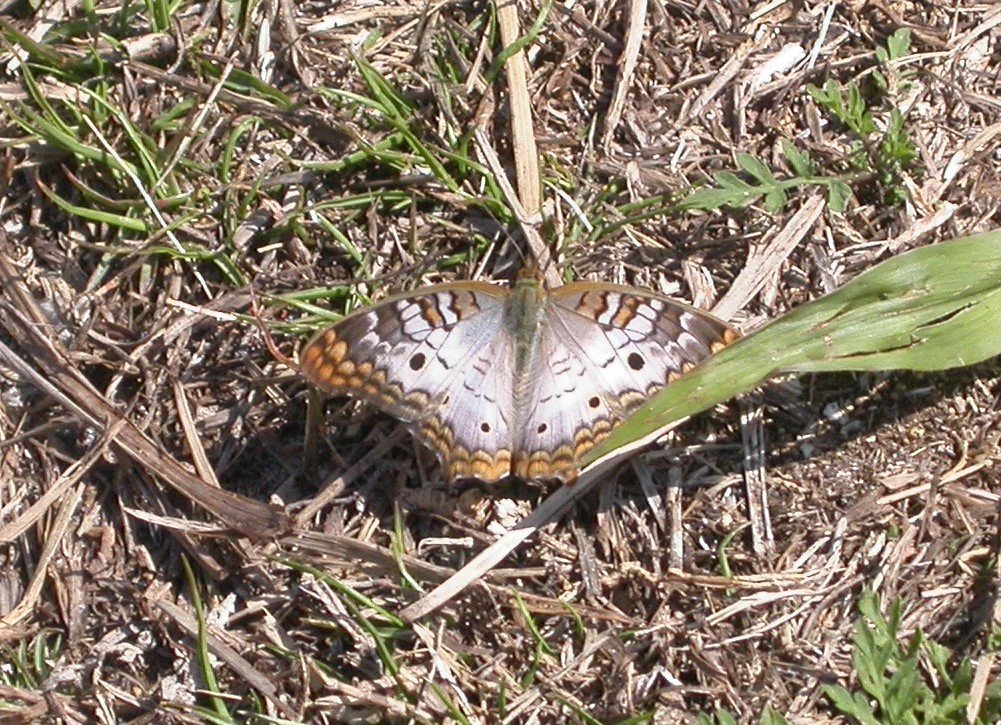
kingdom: Animalia
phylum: Arthropoda
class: Insecta
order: Lepidoptera
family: Nymphalidae
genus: Anartia
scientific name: Anartia jatrophae
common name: White Peacock
